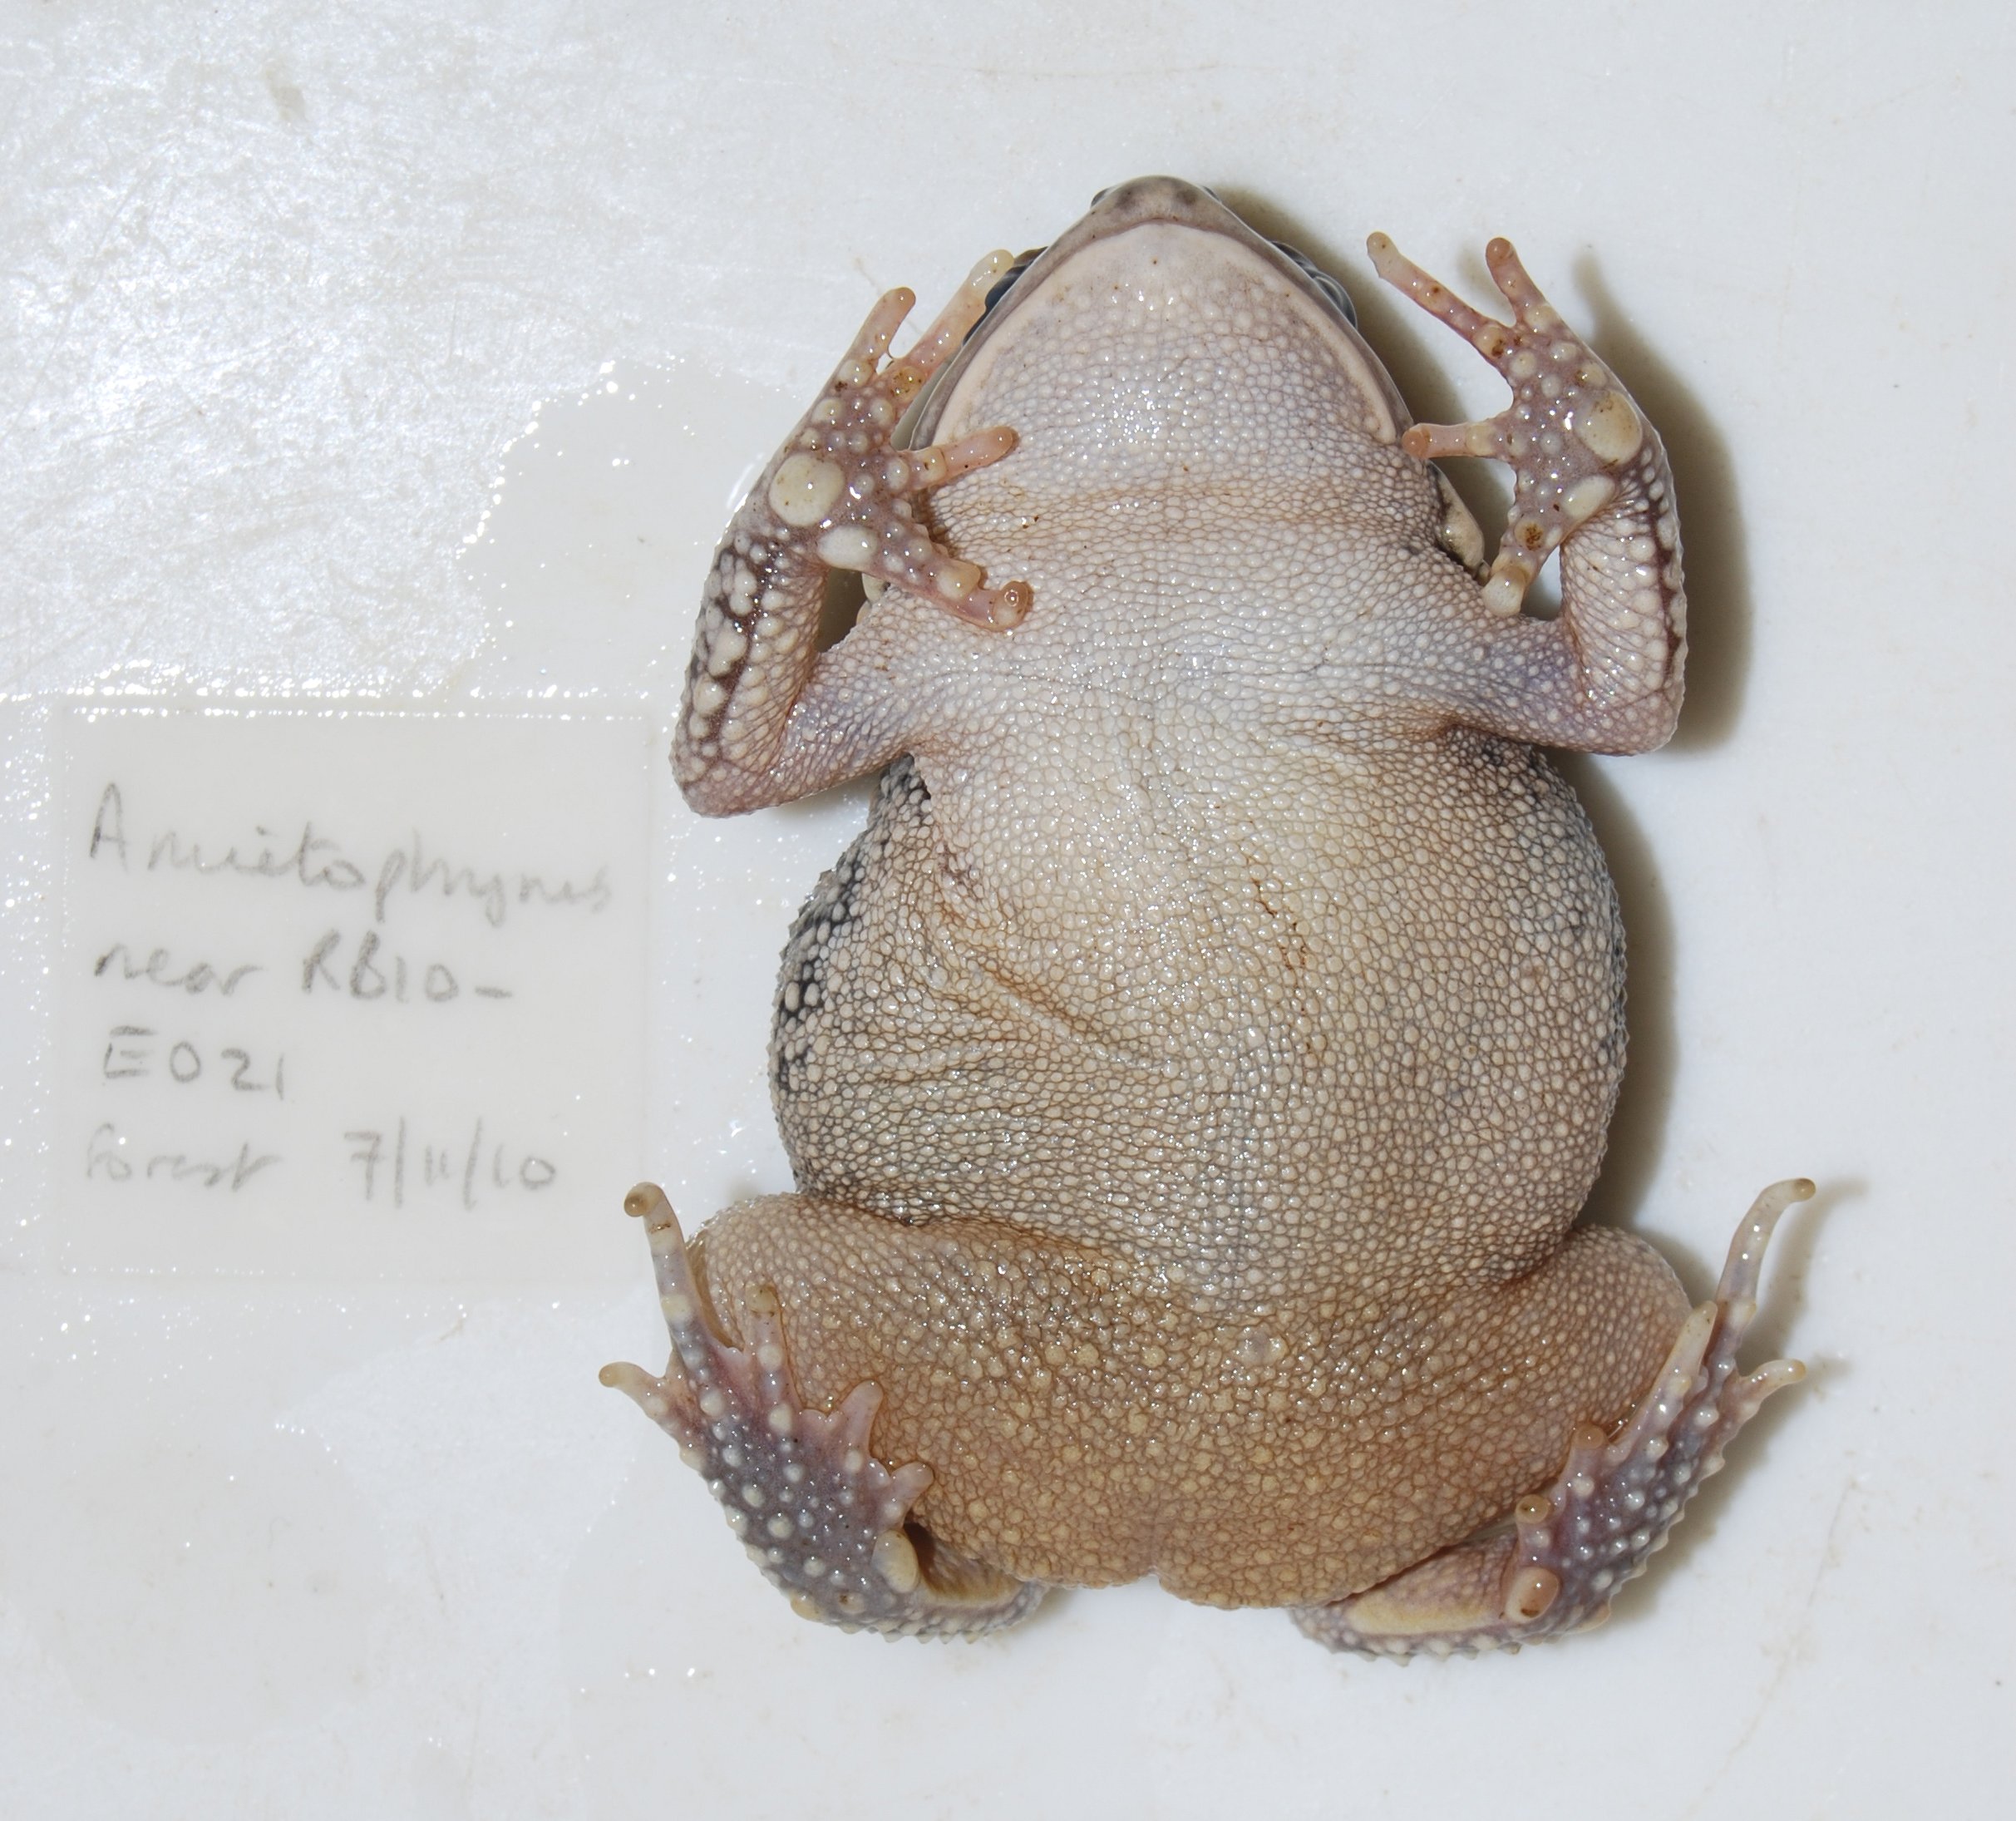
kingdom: Animalia
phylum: Chordata
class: Amphibia
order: Anura
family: Bufonidae
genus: Sclerophrys
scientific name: Sclerophrys
